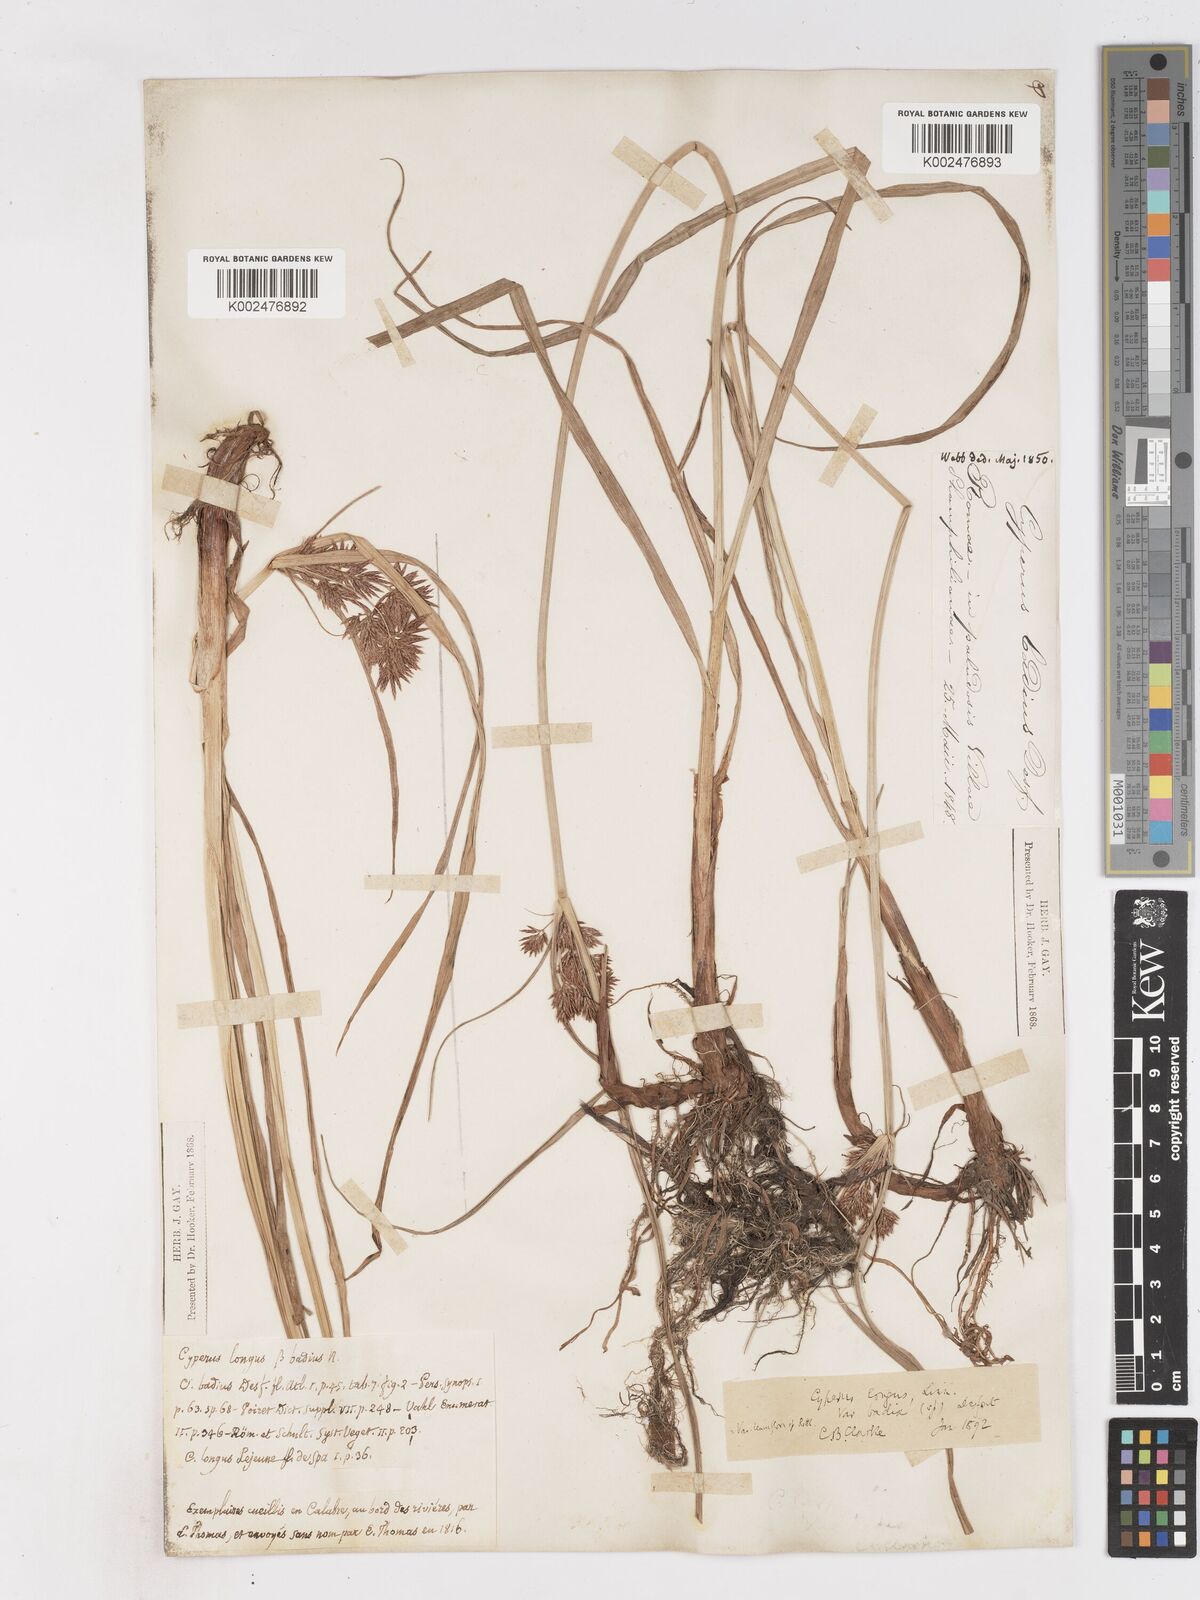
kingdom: Plantae
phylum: Tracheophyta
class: Liliopsida
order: Poales
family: Cyperaceae
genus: Cyperus
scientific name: Cyperus longus
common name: Galingale
